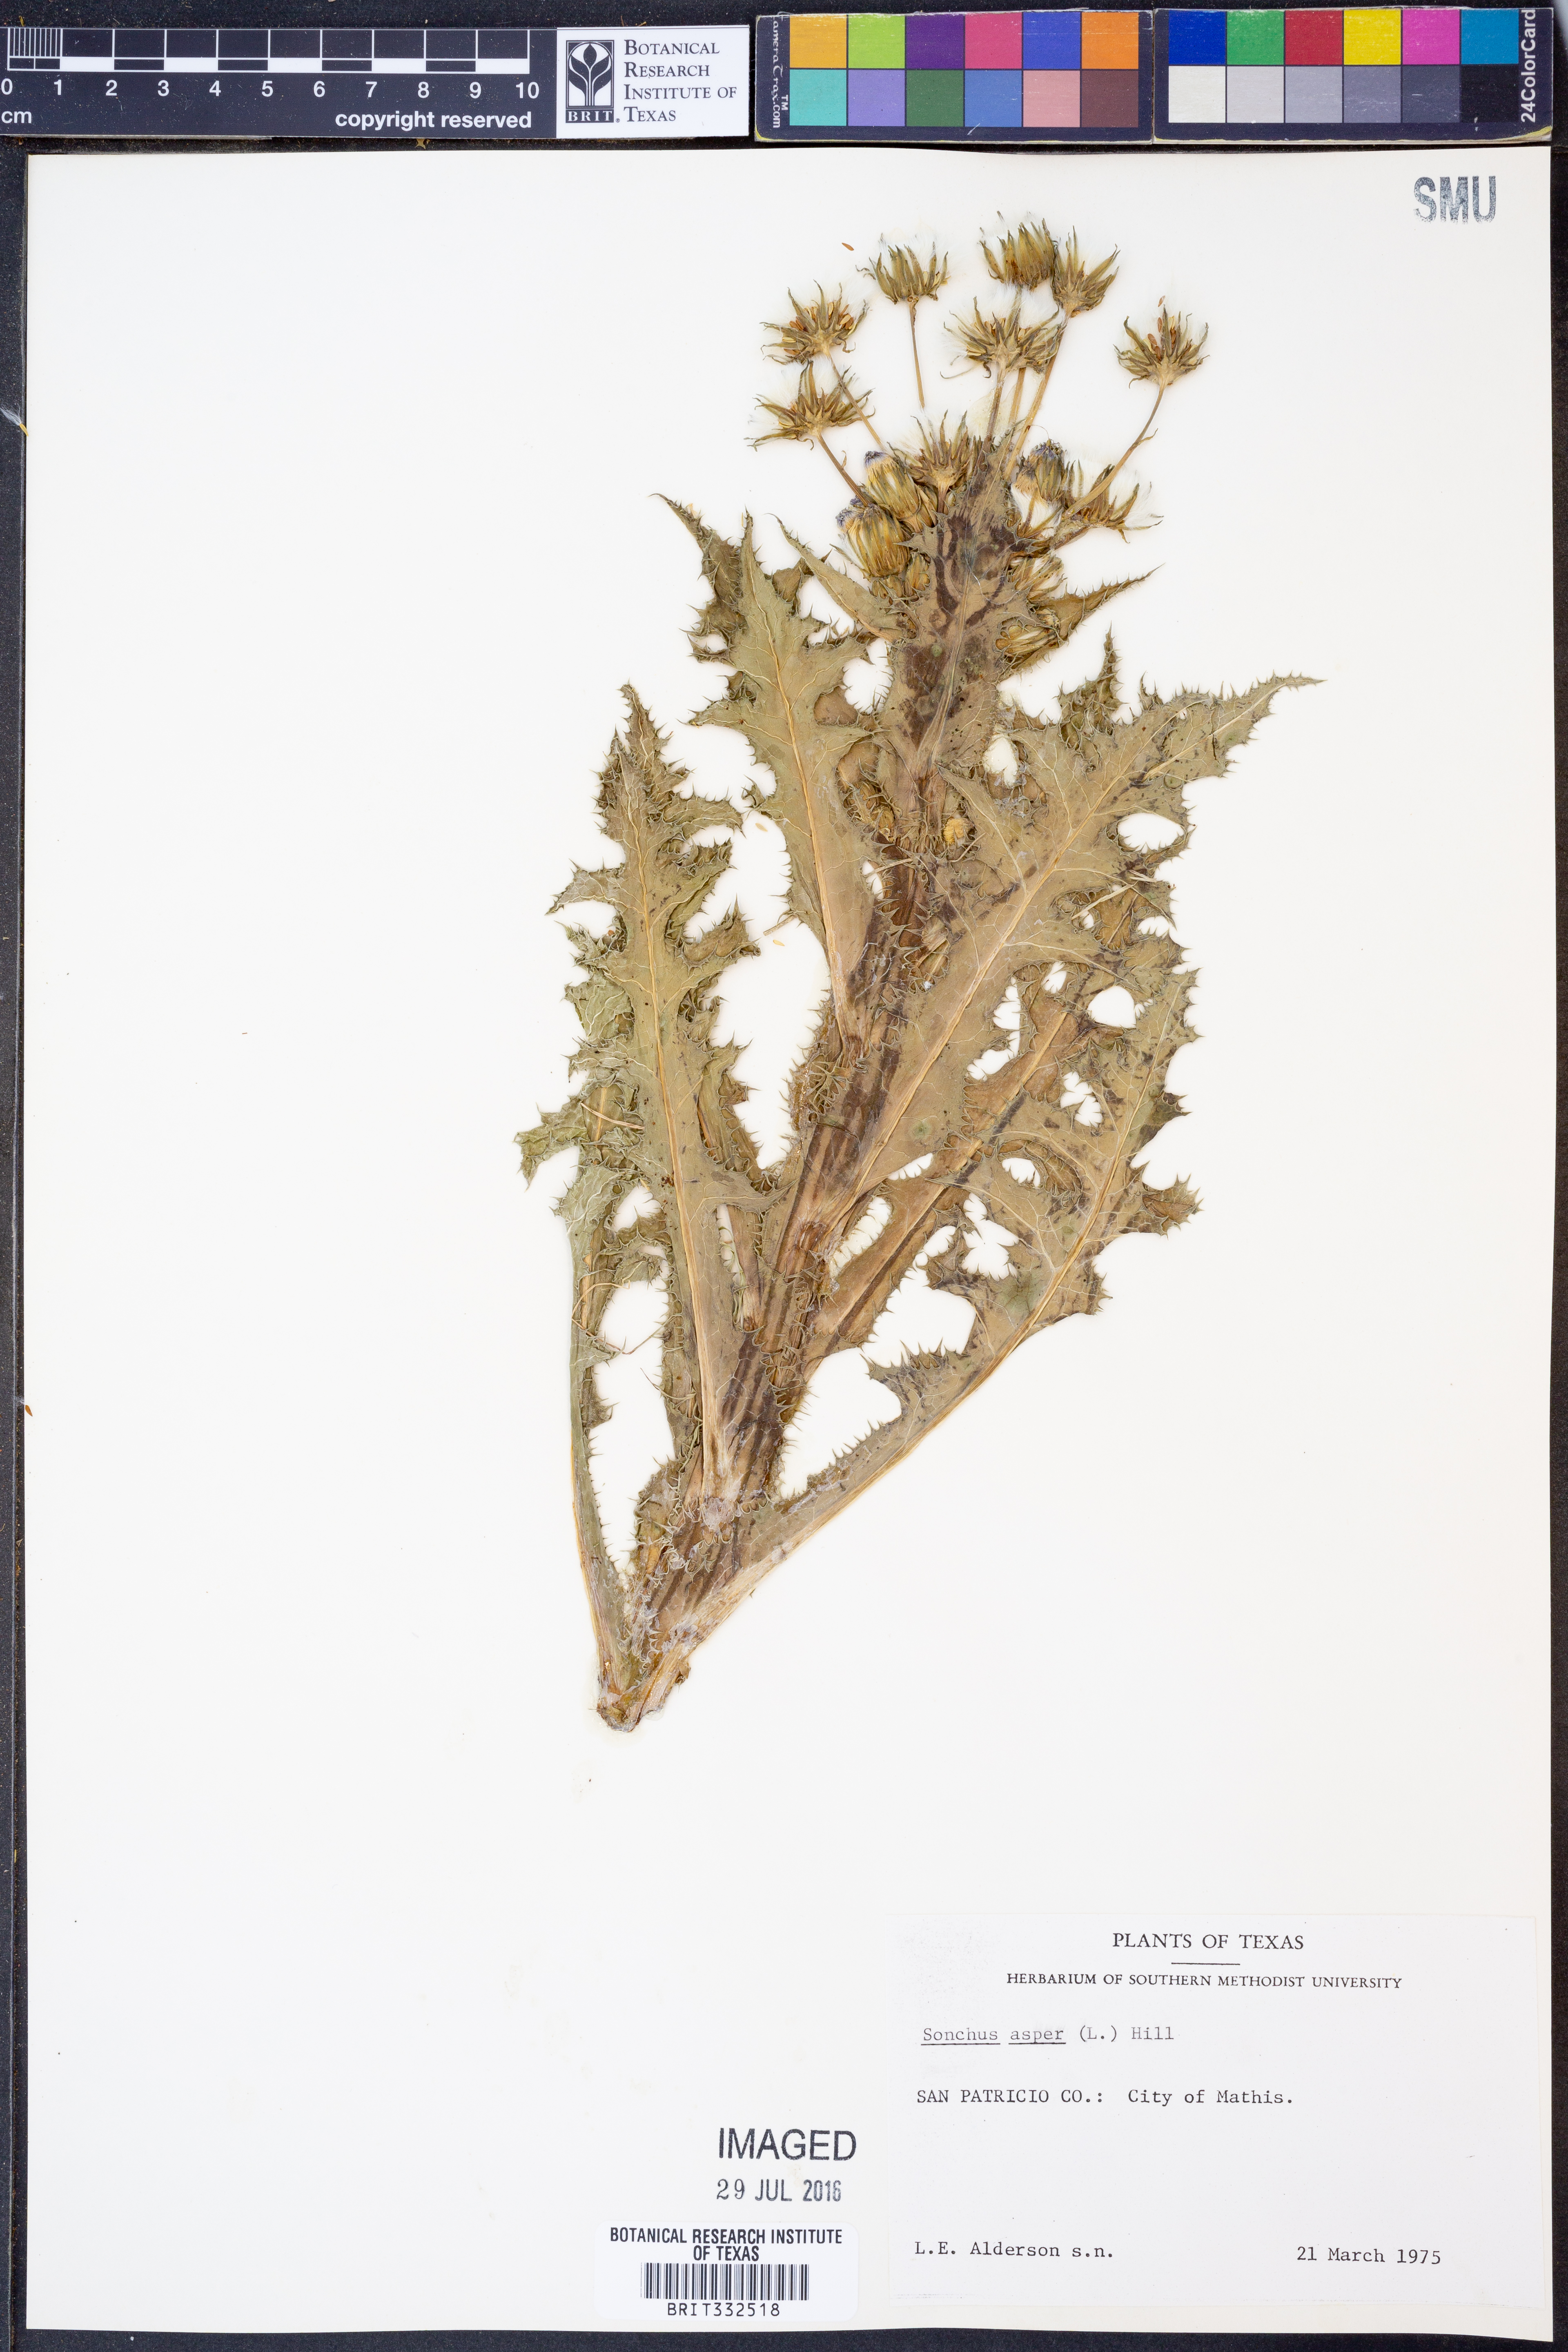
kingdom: Plantae
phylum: Tracheophyta
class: Magnoliopsida
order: Asterales
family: Asteraceae
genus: Sonchus
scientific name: Sonchus asper
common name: Prickly sow-thistle
